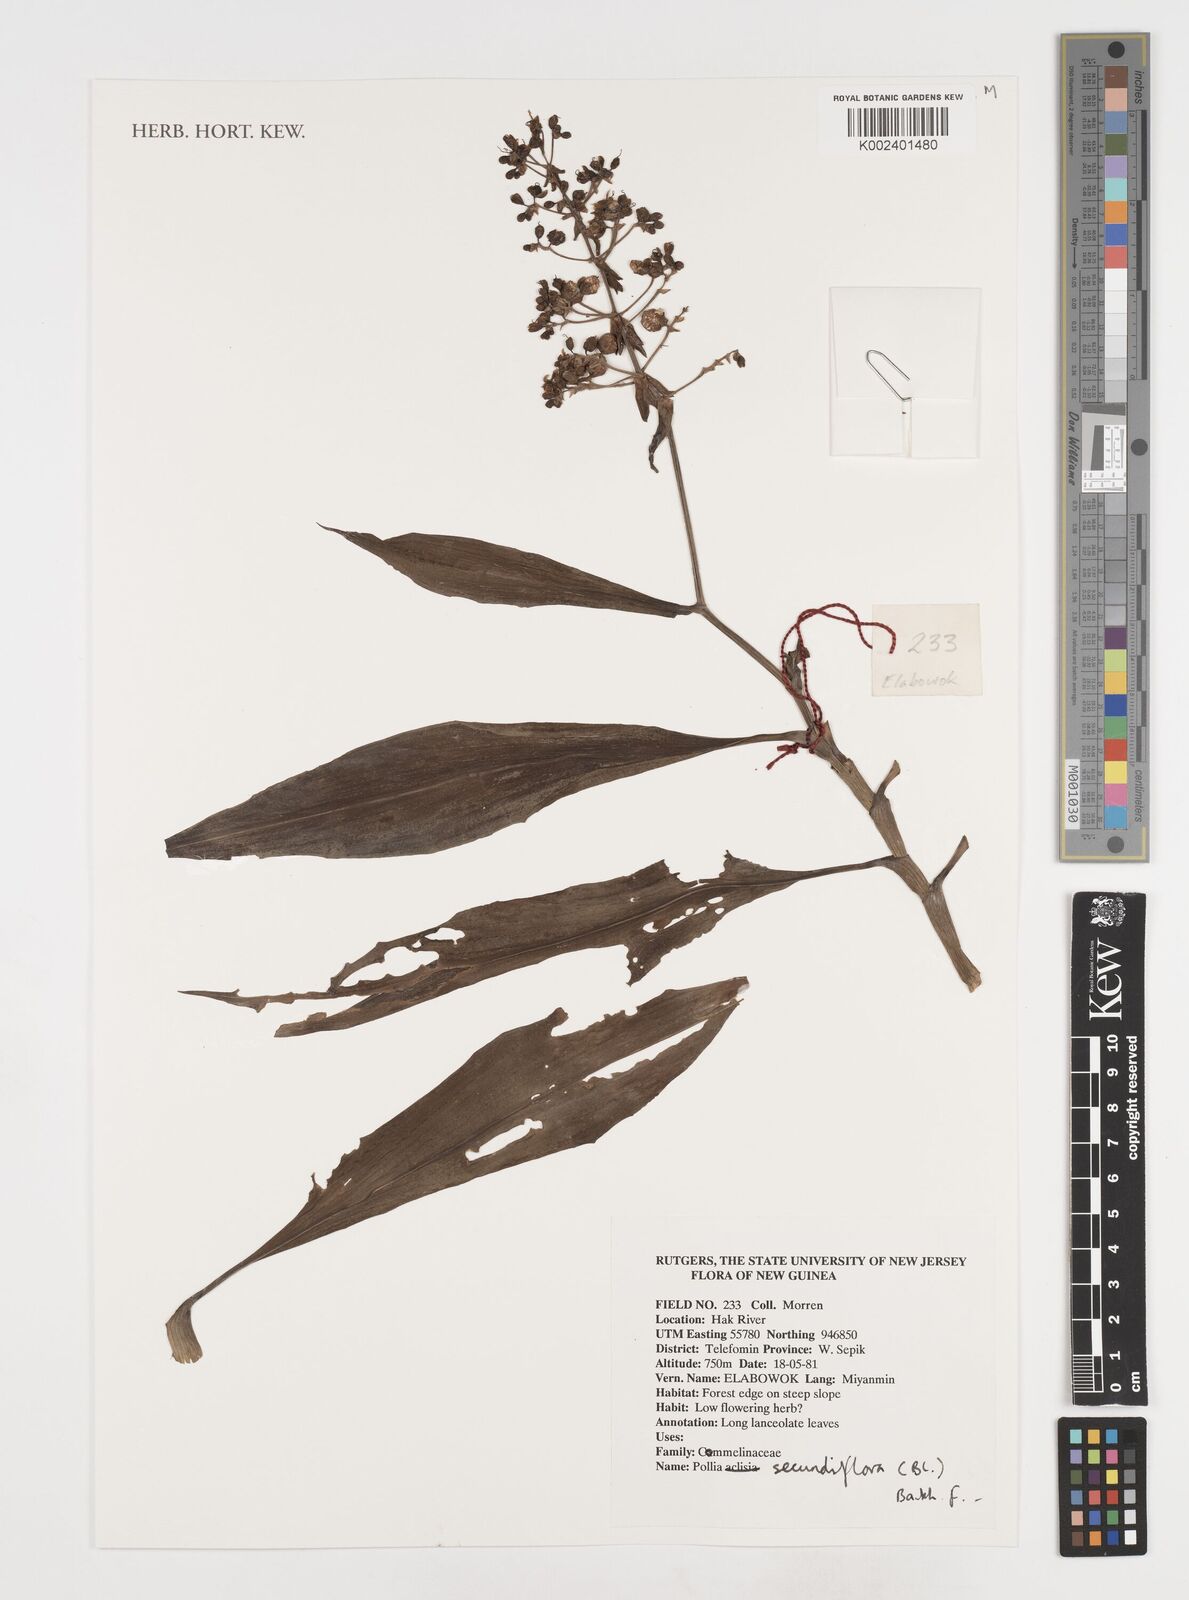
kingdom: Plantae
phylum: Tracheophyta
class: Liliopsida
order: Commelinales
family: Commelinaceae
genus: Pollia
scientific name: Pollia secundiflora
